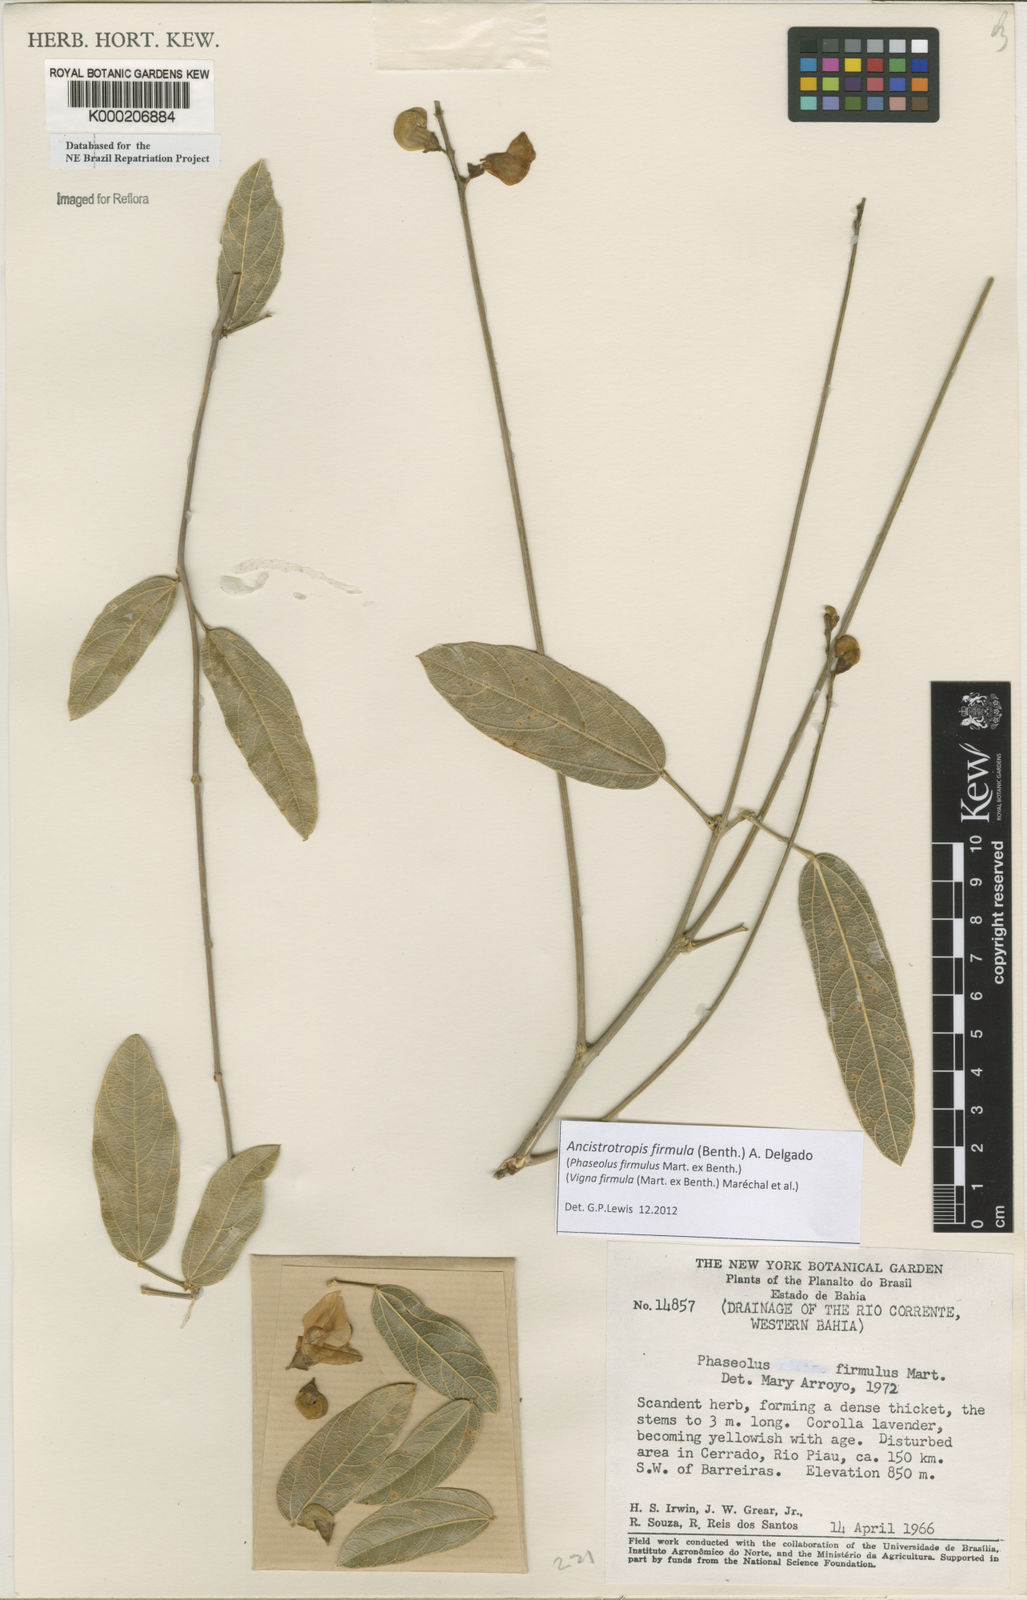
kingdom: Plantae
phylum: Tracheophyta
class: Magnoliopsida
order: Fabales
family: Fabaceae
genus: Vigna
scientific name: Vigna
